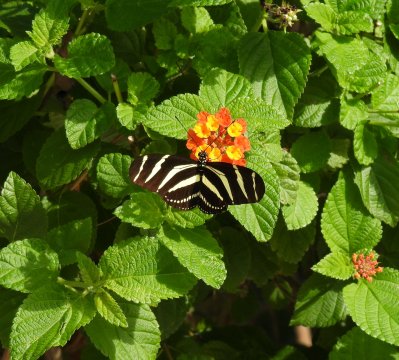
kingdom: Animalia
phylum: Arthropoda
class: Insecta
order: Lepidoptera
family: Nymphalidae
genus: Heliconius
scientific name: Heliconius charithonia
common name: Zebra Longwing
